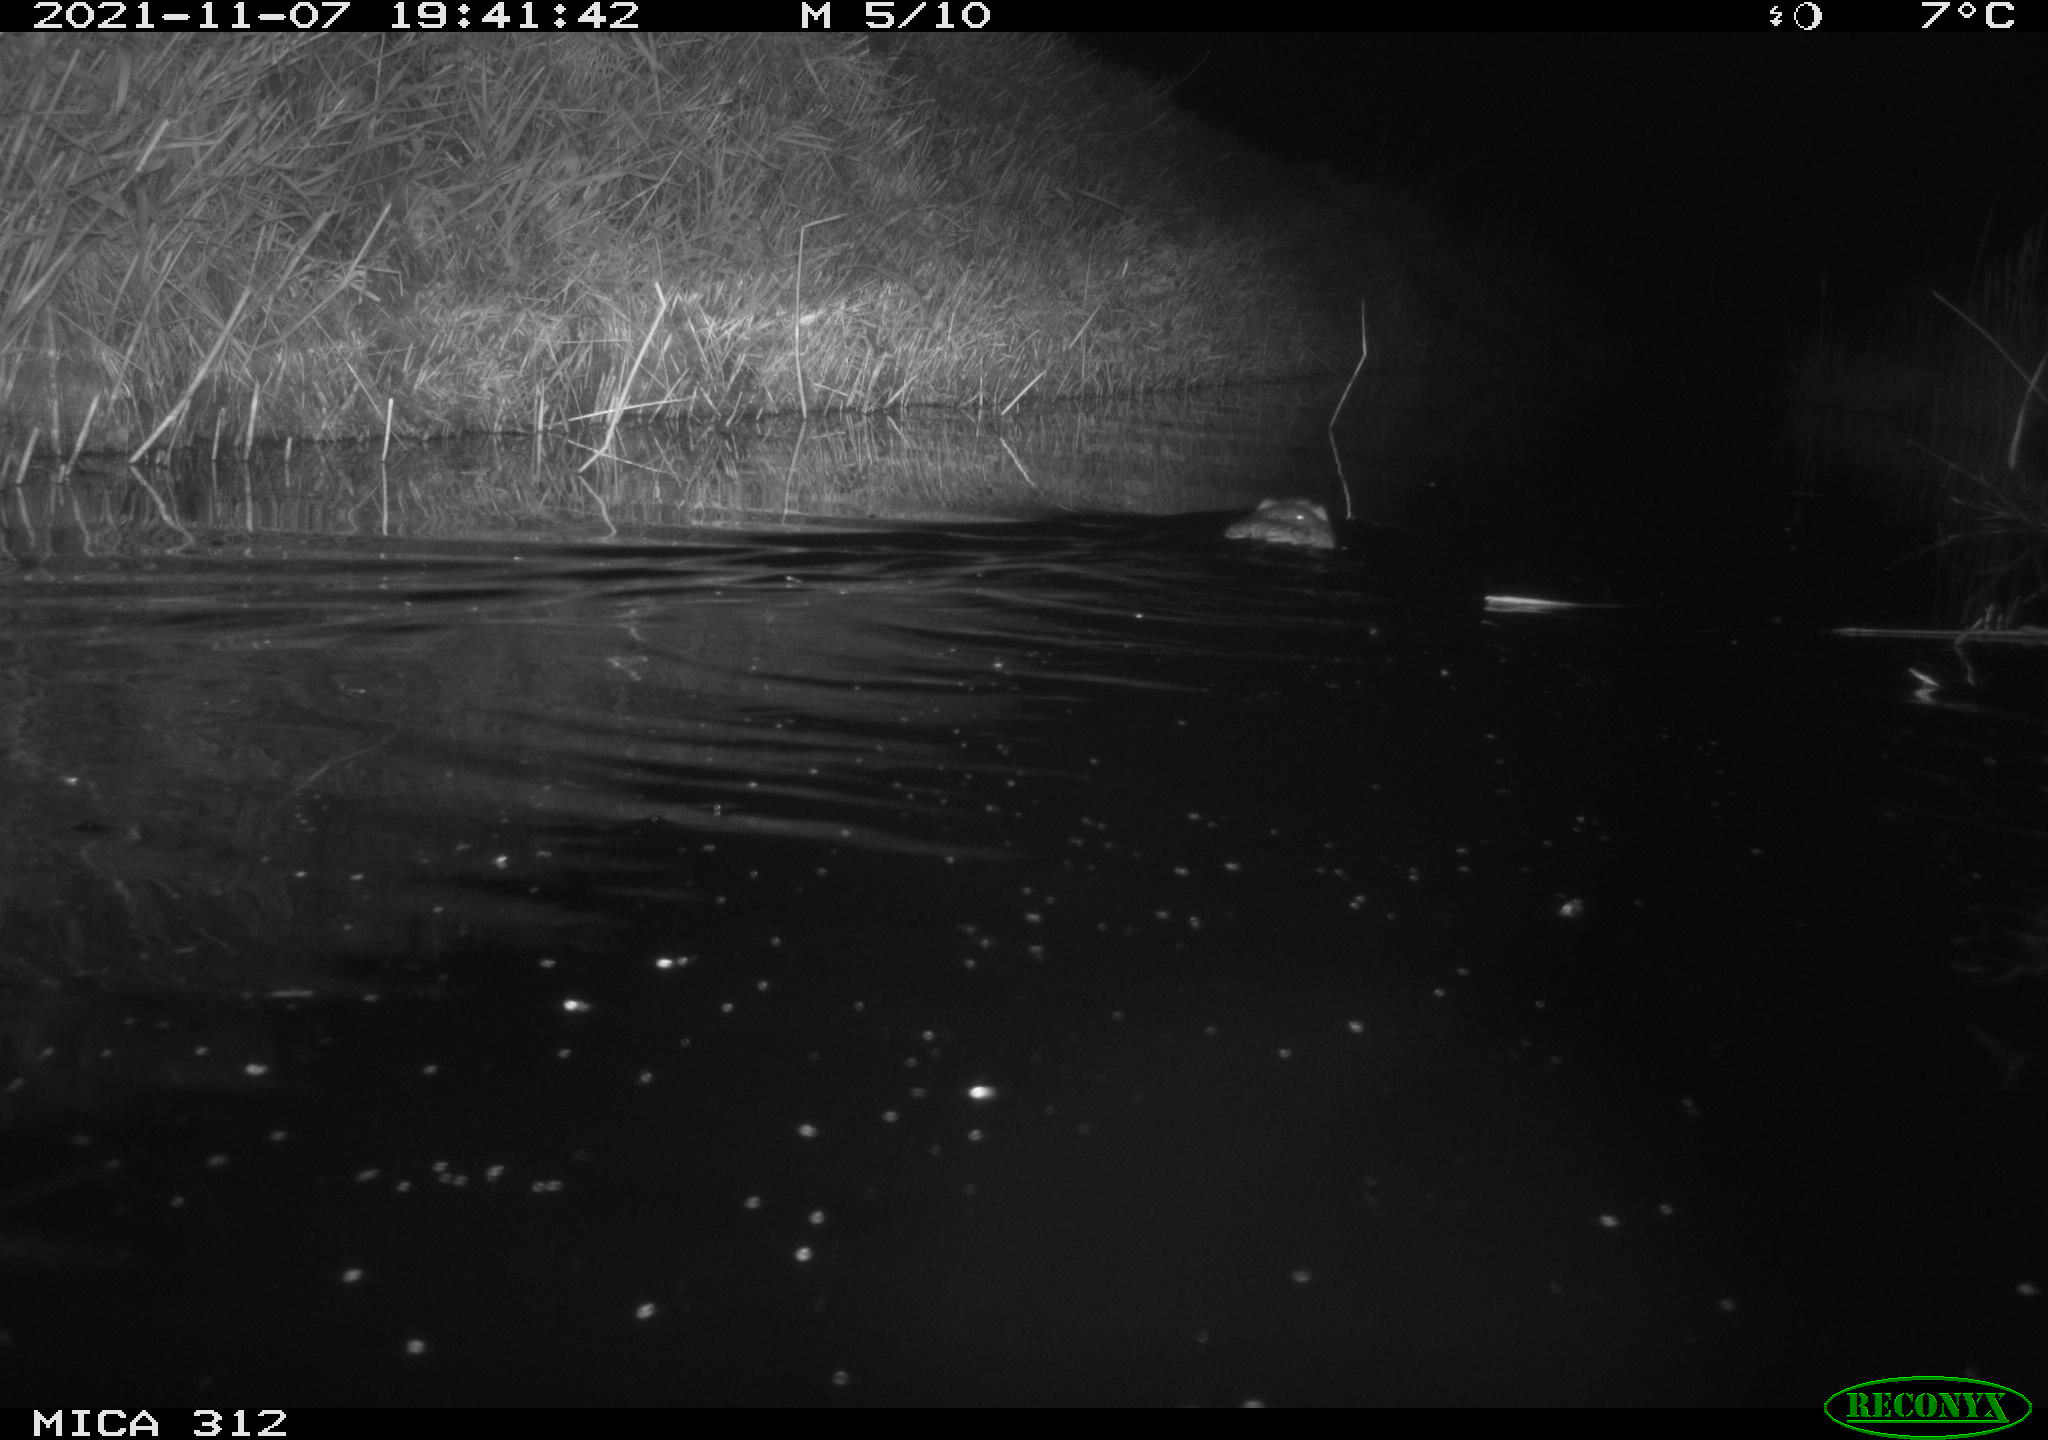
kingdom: Animalia
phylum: Chordata
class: Mammalia
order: Rodentia
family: Muridae
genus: Rattus
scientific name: Rattus norvegicus
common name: Brown rat
